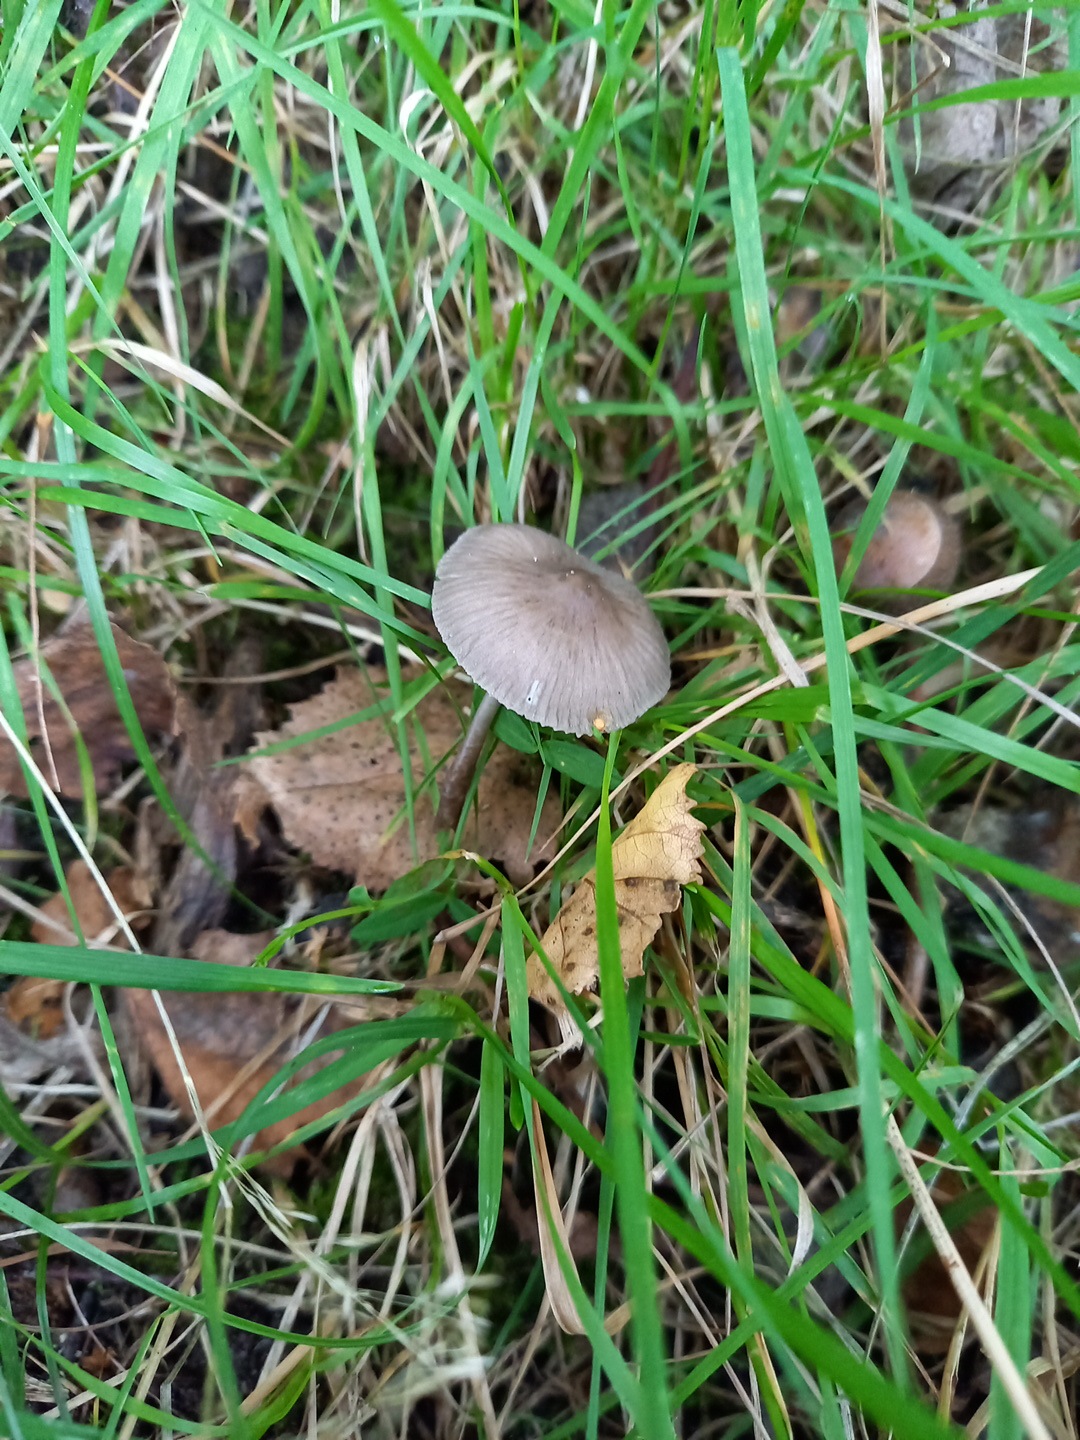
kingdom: Fungi
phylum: Basidiomycota
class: Agaricomycetes
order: Agaricales
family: Mycenaceae
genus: Mycena
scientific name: Mycena aetites
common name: plæne-huesvamp
